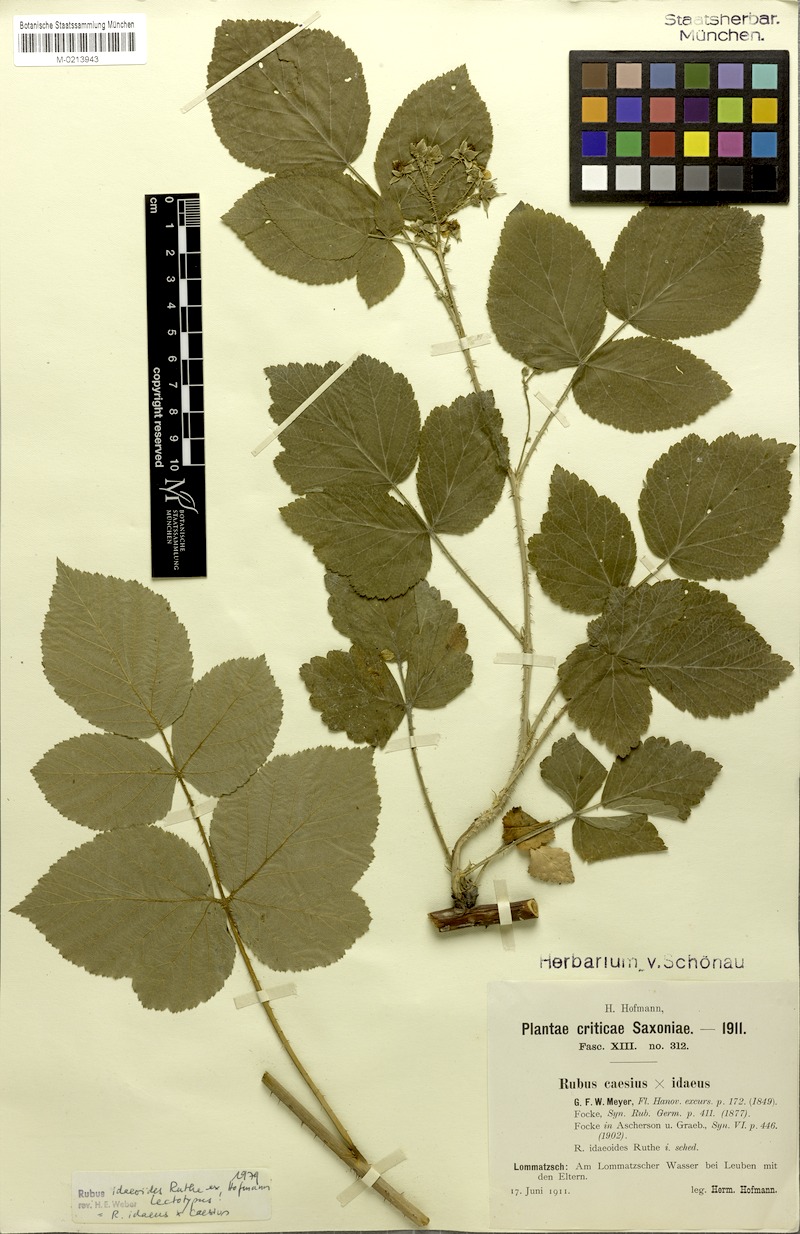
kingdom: Plantae
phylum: Tracheophyta
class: Magnoliopsida
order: Rosales
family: Rosaceae
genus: Rubus
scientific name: Rubus
